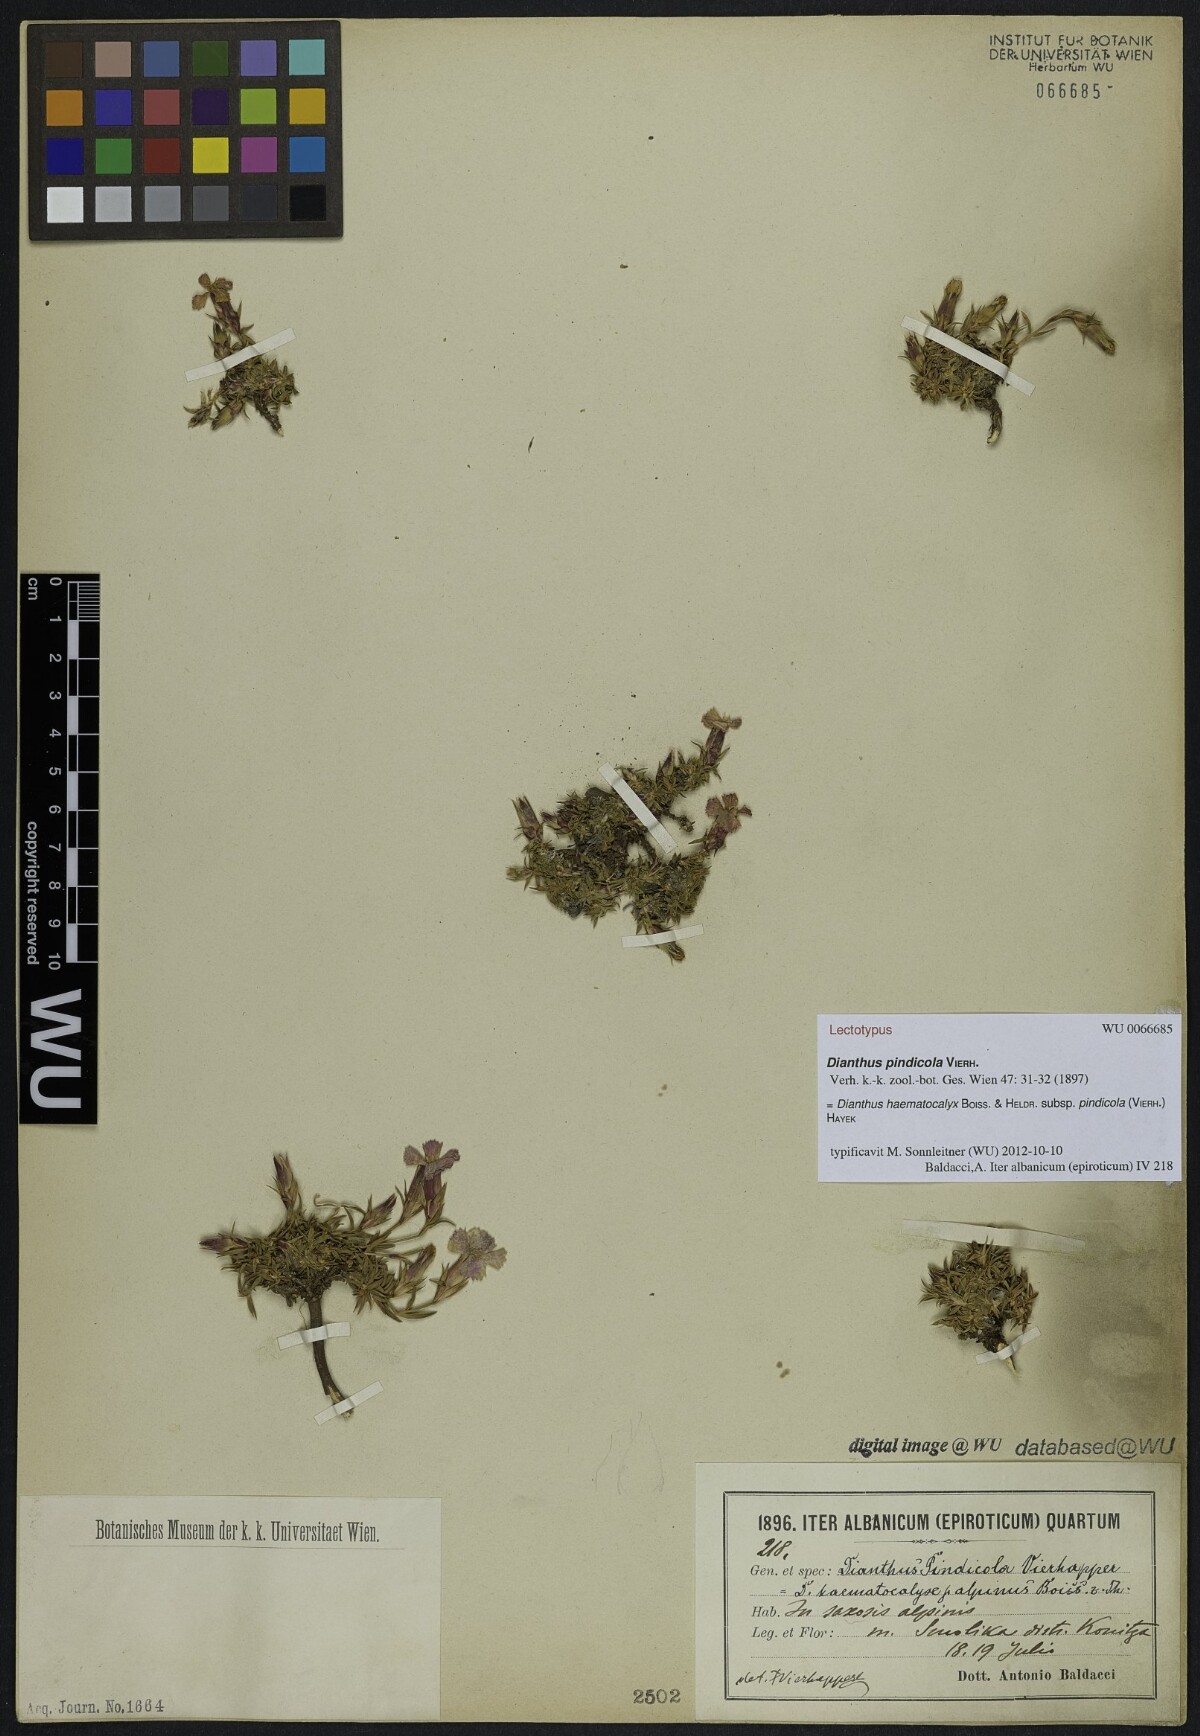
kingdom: Plantae
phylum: Tracheophyta
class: Magnoliopsida
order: Caryophyllales
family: Caryophyllaceae
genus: Dianthus
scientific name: Dianthus haematocalyx
